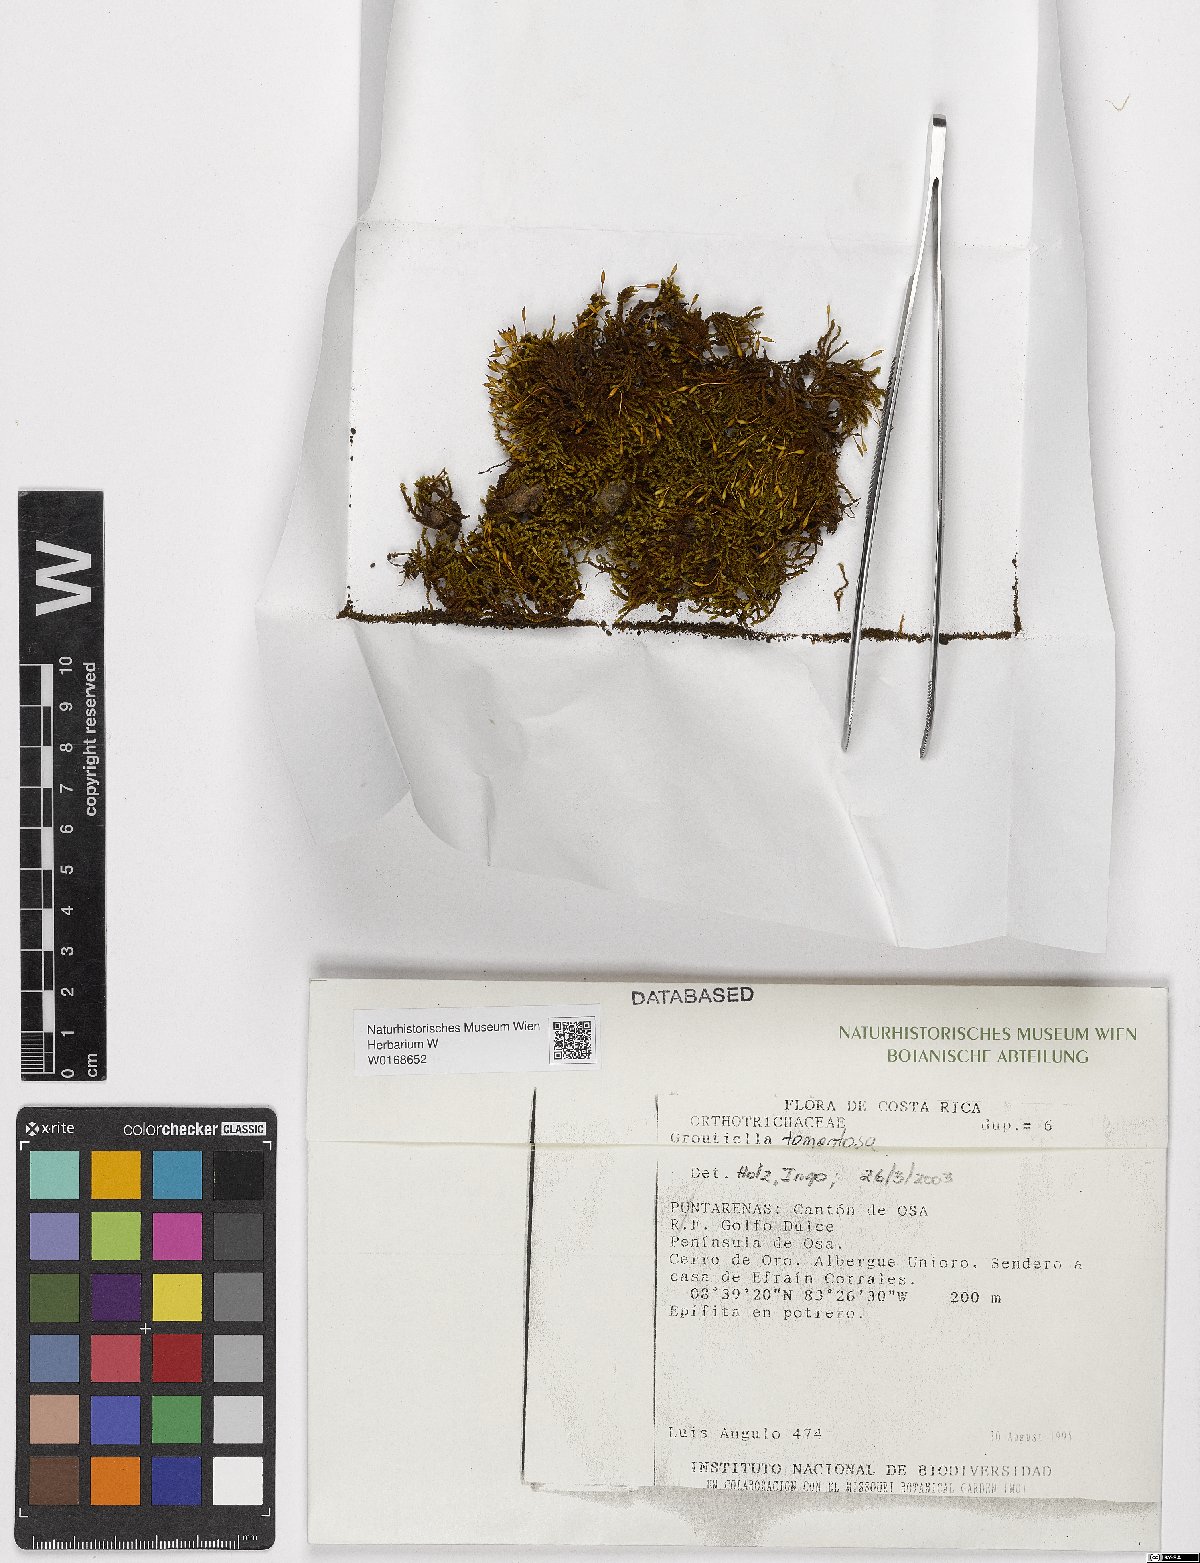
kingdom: Plantae
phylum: Bryophyta
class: Bryopsida
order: Orthotrichales
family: Orthotrichaceae
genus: Groutiella
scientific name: Groutiella tomentosa
